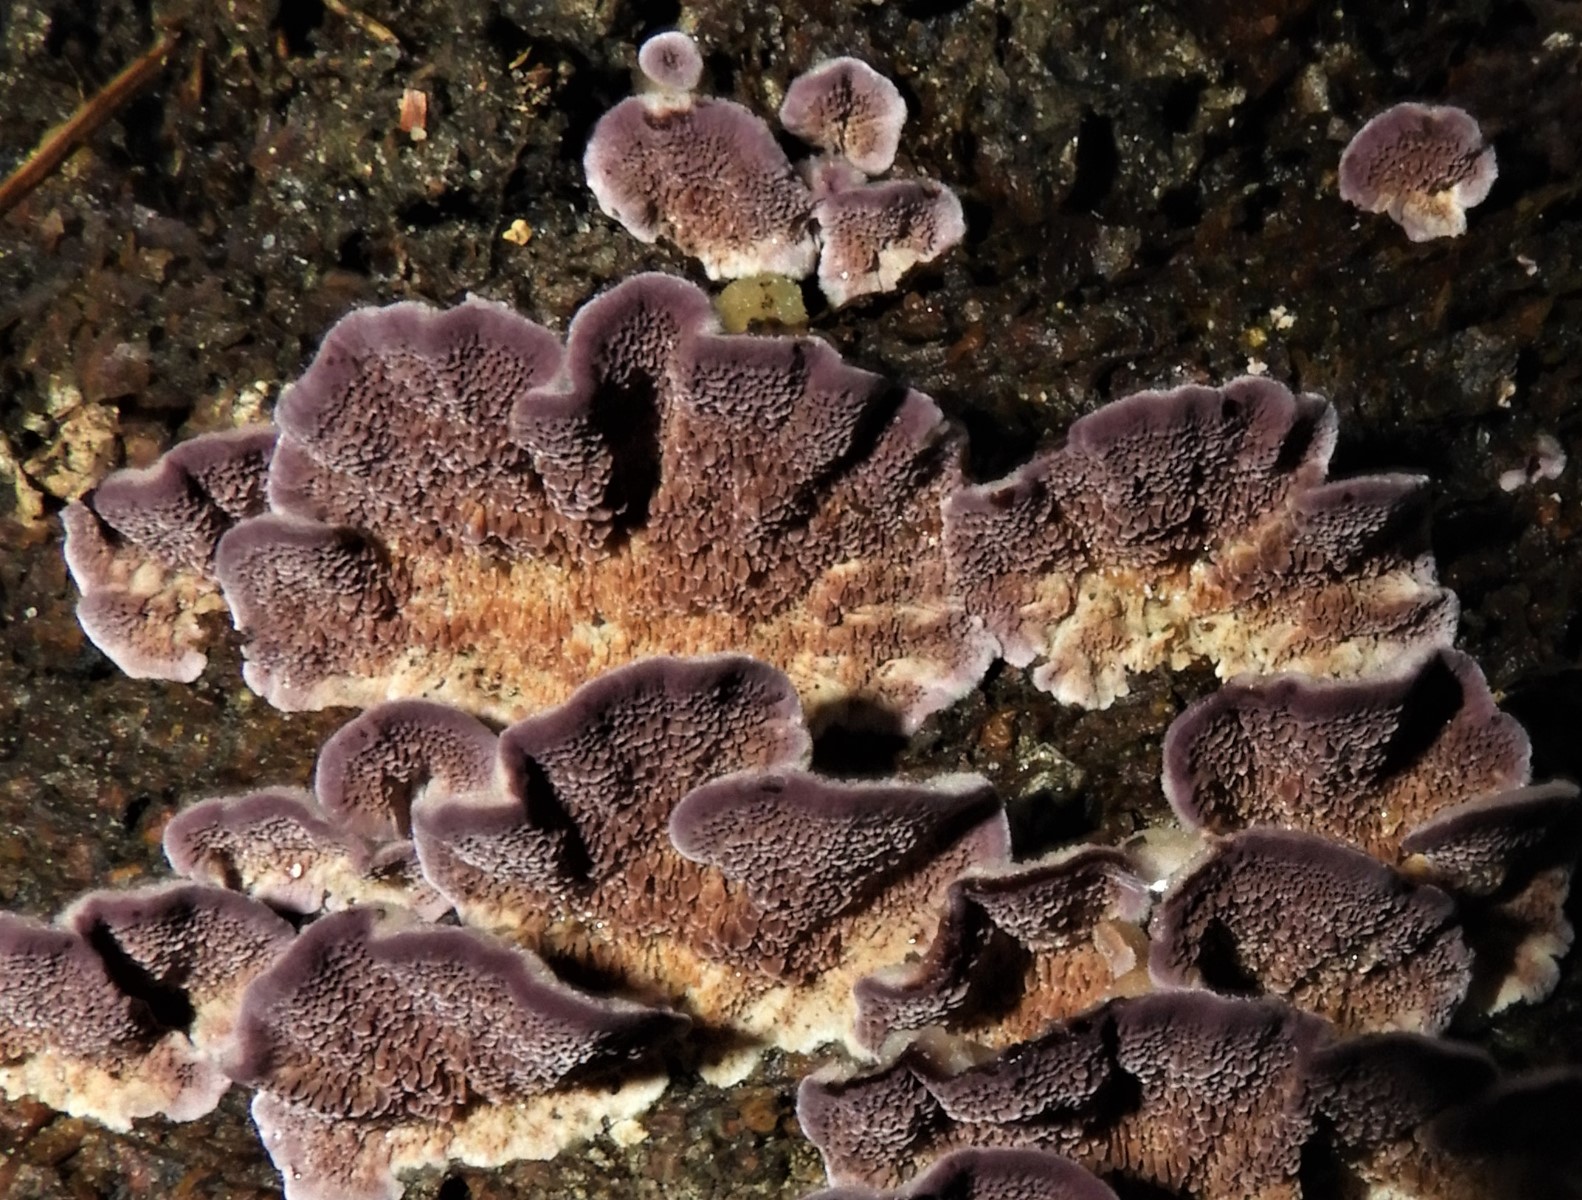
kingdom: Fungi
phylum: Basidiomycota
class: Agaricomycetes
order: Hymenochaetales
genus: Trichaptum
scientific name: Trichaptum fuscoviolaceum
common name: tandet violporesvamp
